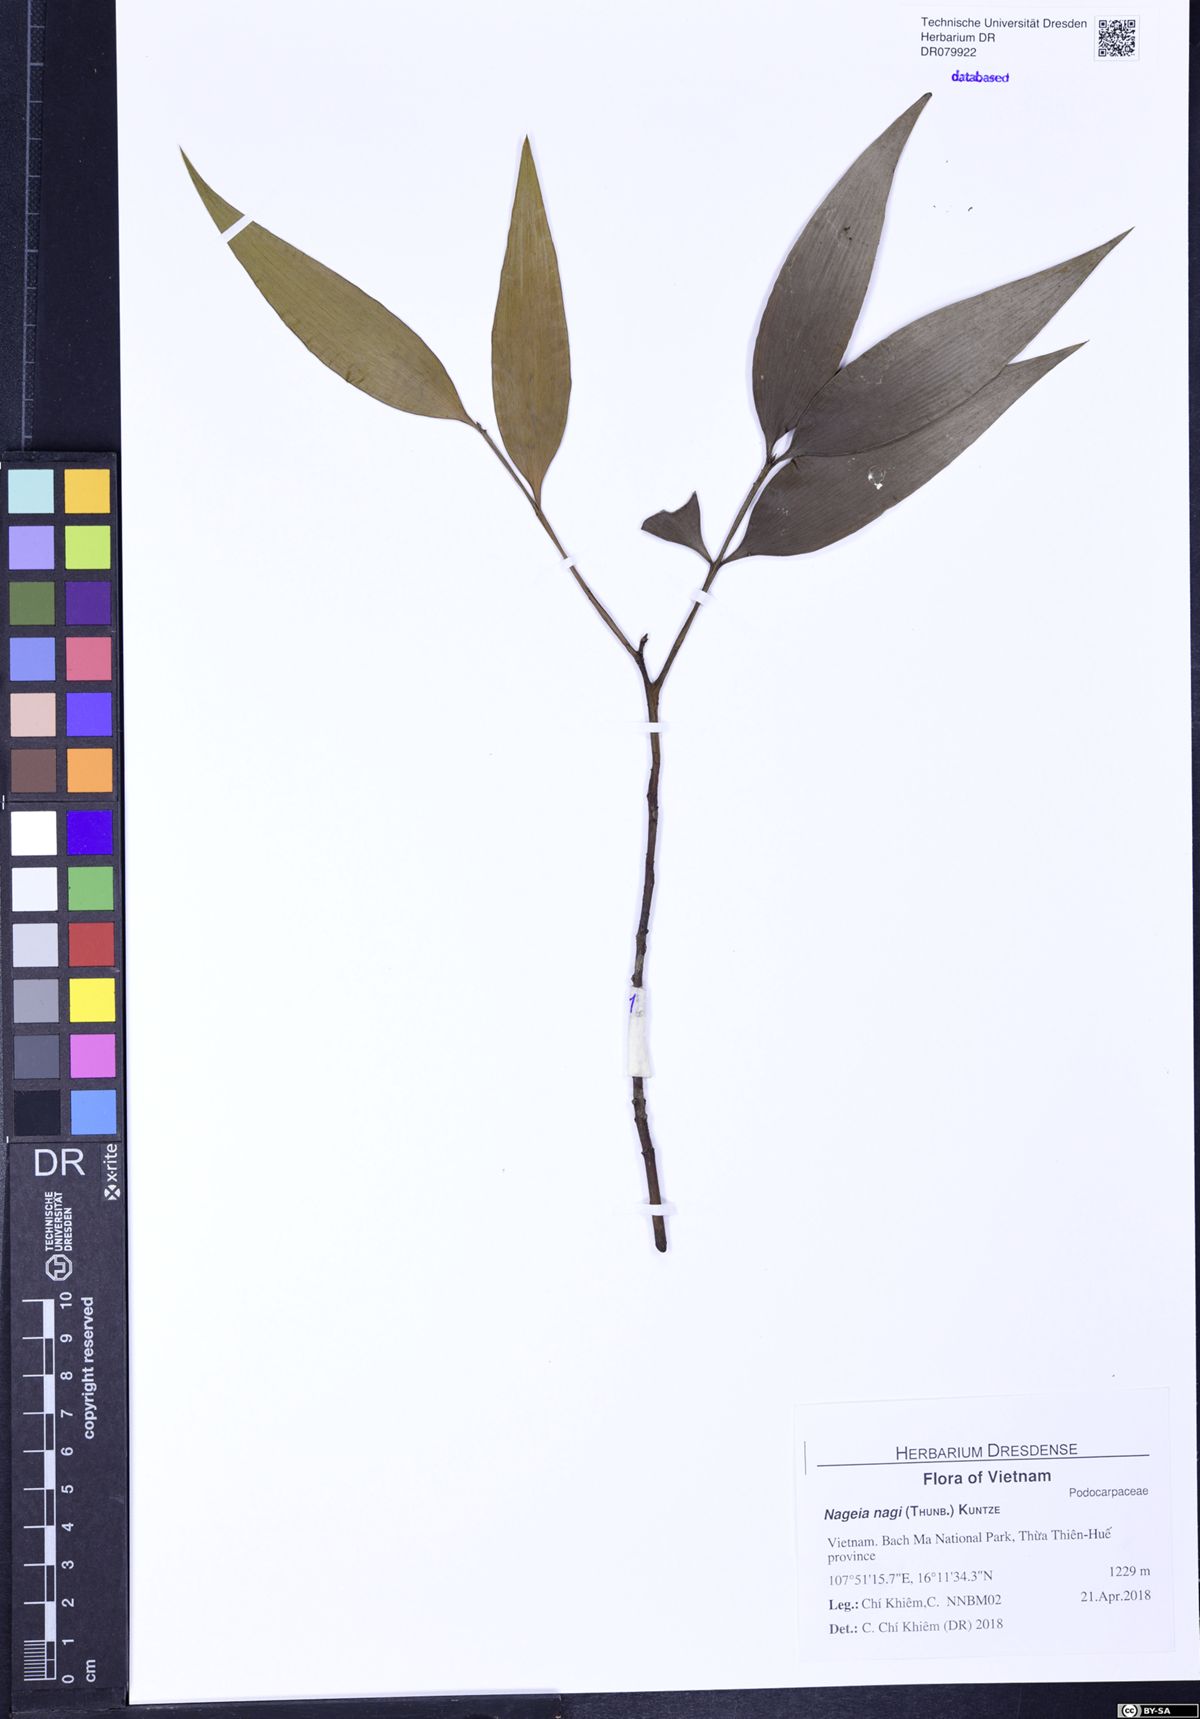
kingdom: Plantae
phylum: Tracheophyta
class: Pinopsida
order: Pinales
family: Podocarpaceae
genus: Nageia
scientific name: Nageia nagi
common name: Kaphal
